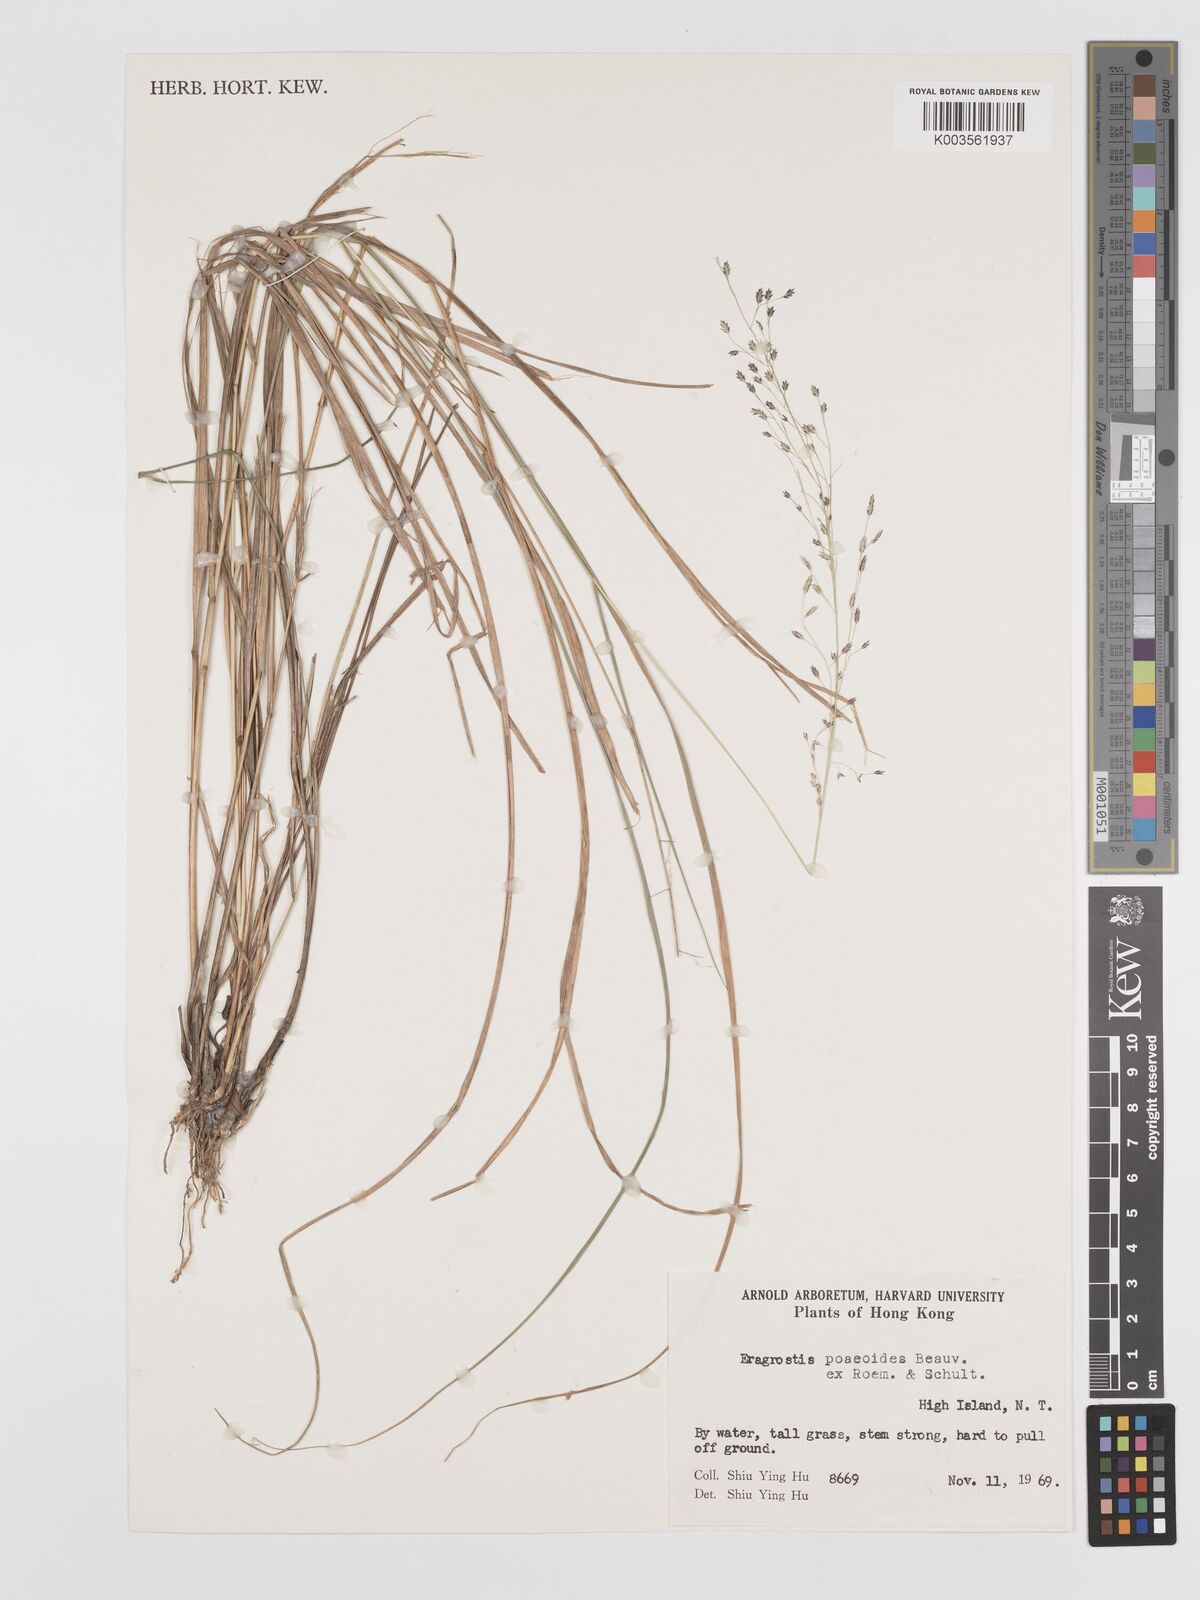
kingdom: Plantae
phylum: Tracheophyta
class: Liliopsida
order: Poales
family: Poaceae
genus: Eragrostis
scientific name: Eragrostis atrovirens
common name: Thalia lovegrass
